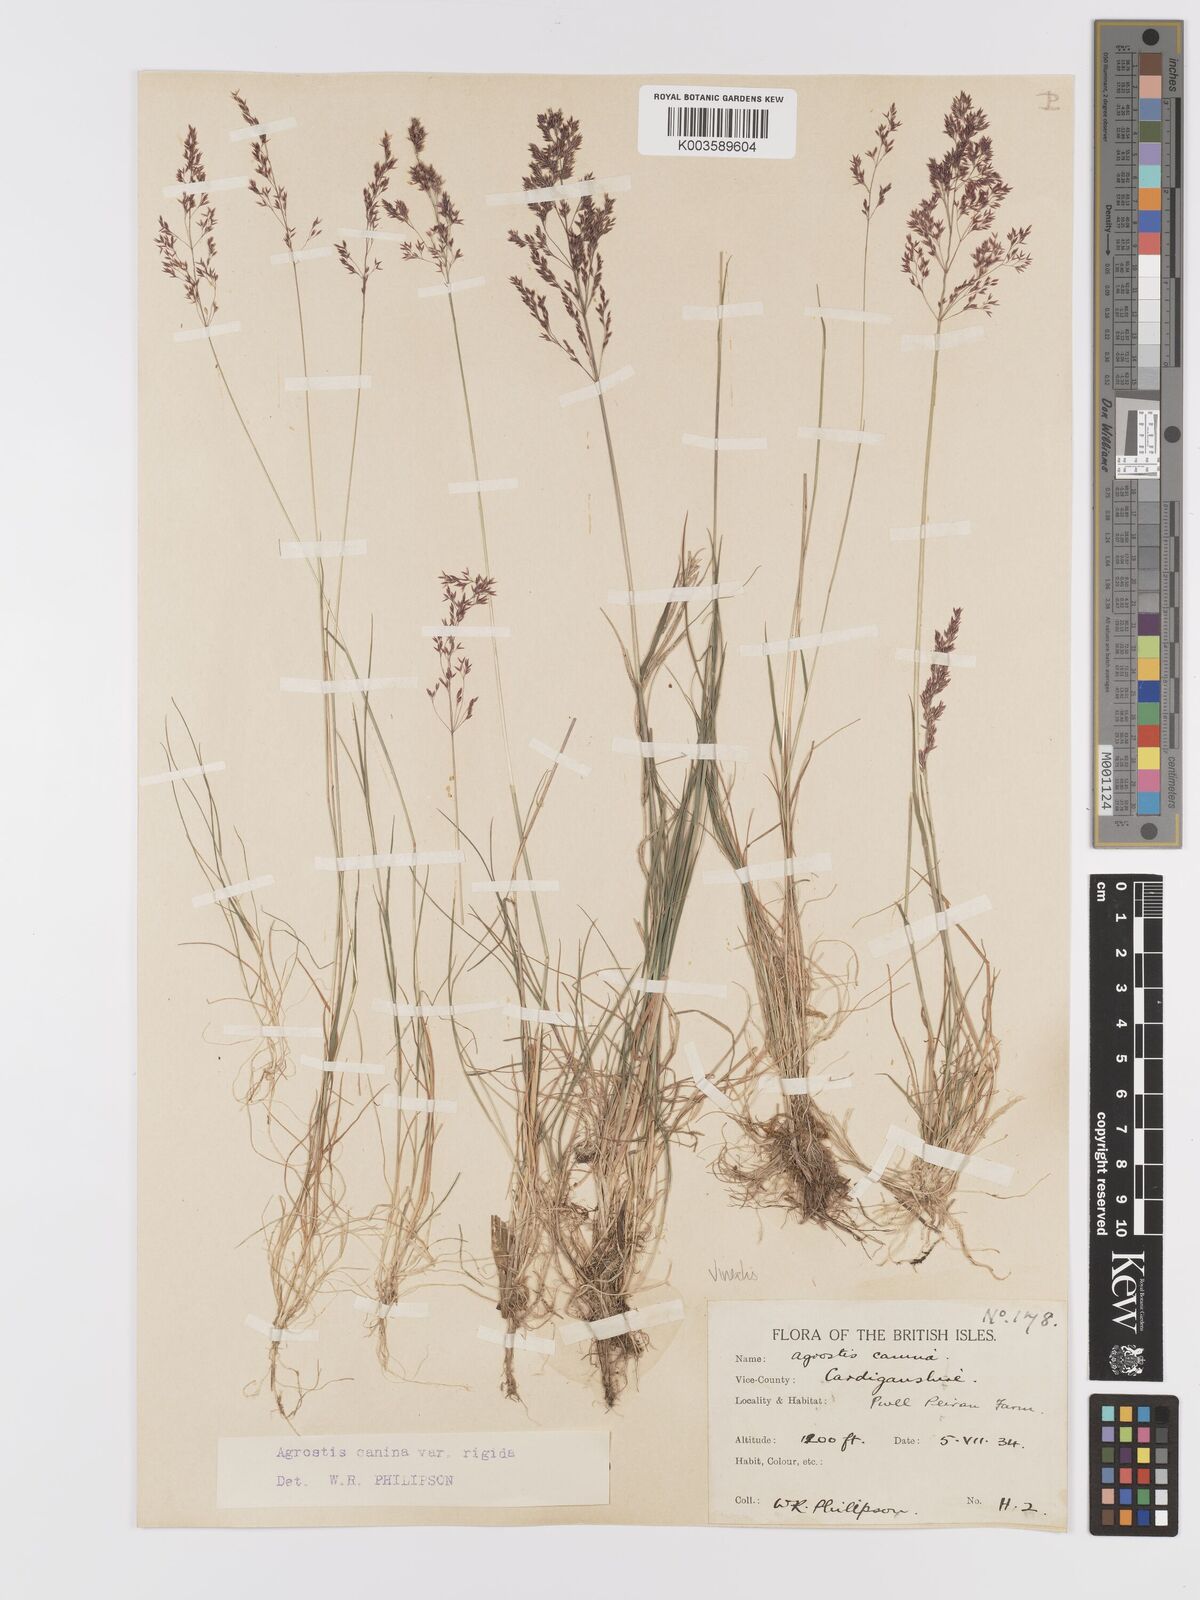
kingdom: Plantae
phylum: Tracheophyta
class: Liliopsida
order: Poales
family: Poaceae
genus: Agrostis
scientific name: Agrostis
